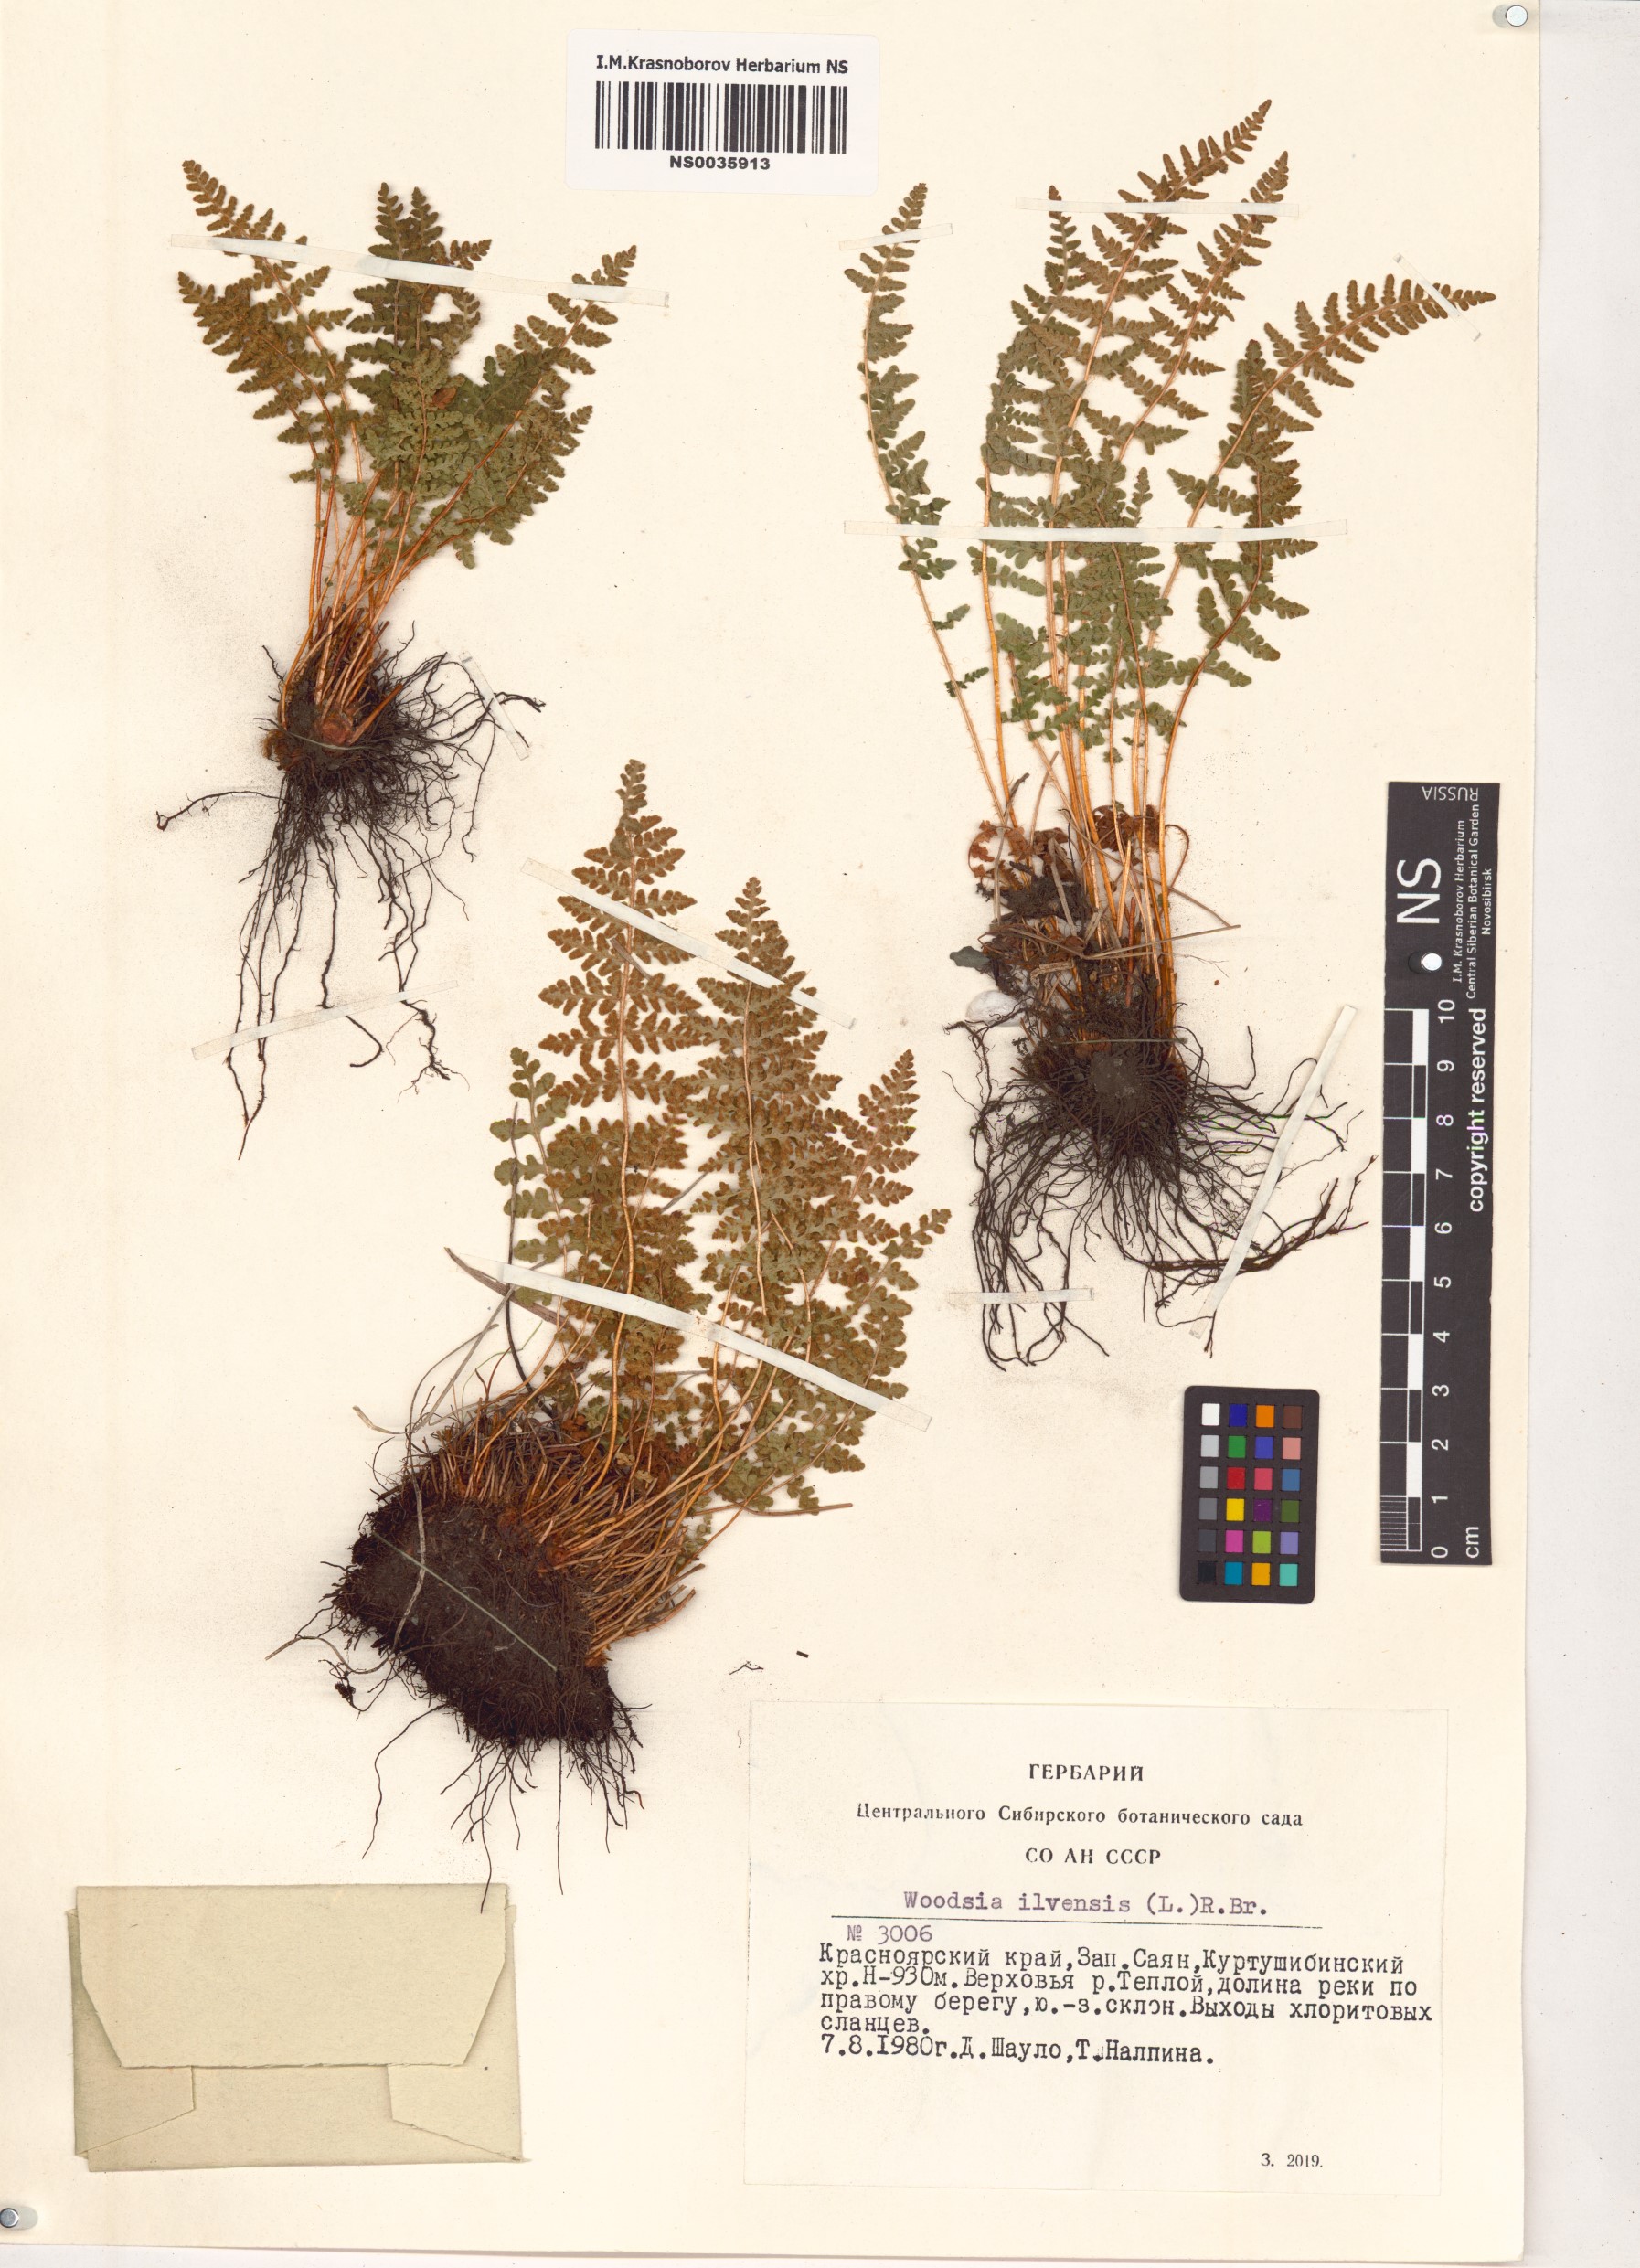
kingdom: Plantae
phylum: Tracheophyta
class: Polypodiopsida
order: Polypodiales
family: Woodsiaceae
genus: Woodsia
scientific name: Woodsia ilvensis
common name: Fragrant woodsia
